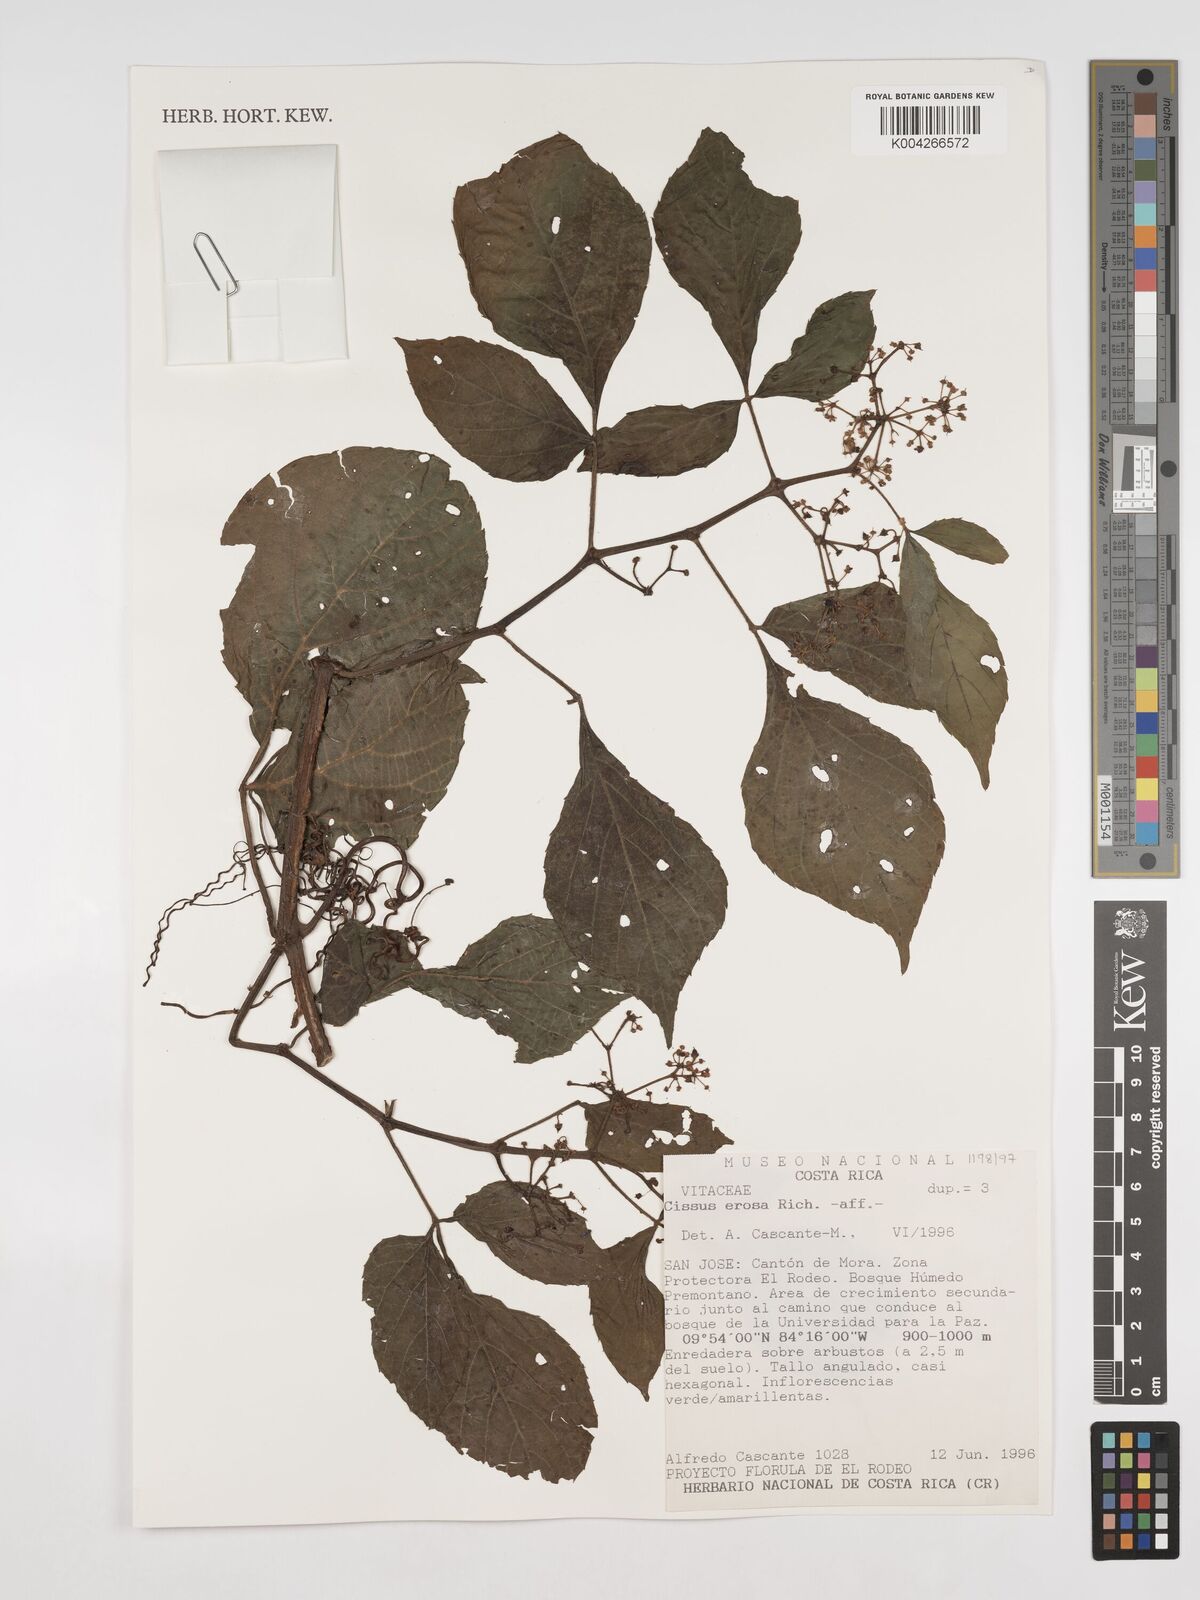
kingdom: Plantae
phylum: Tracheophyta
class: Magnoliopsida
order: Vitales
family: Vitaceae
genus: Cissus
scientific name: Cissus erosa
